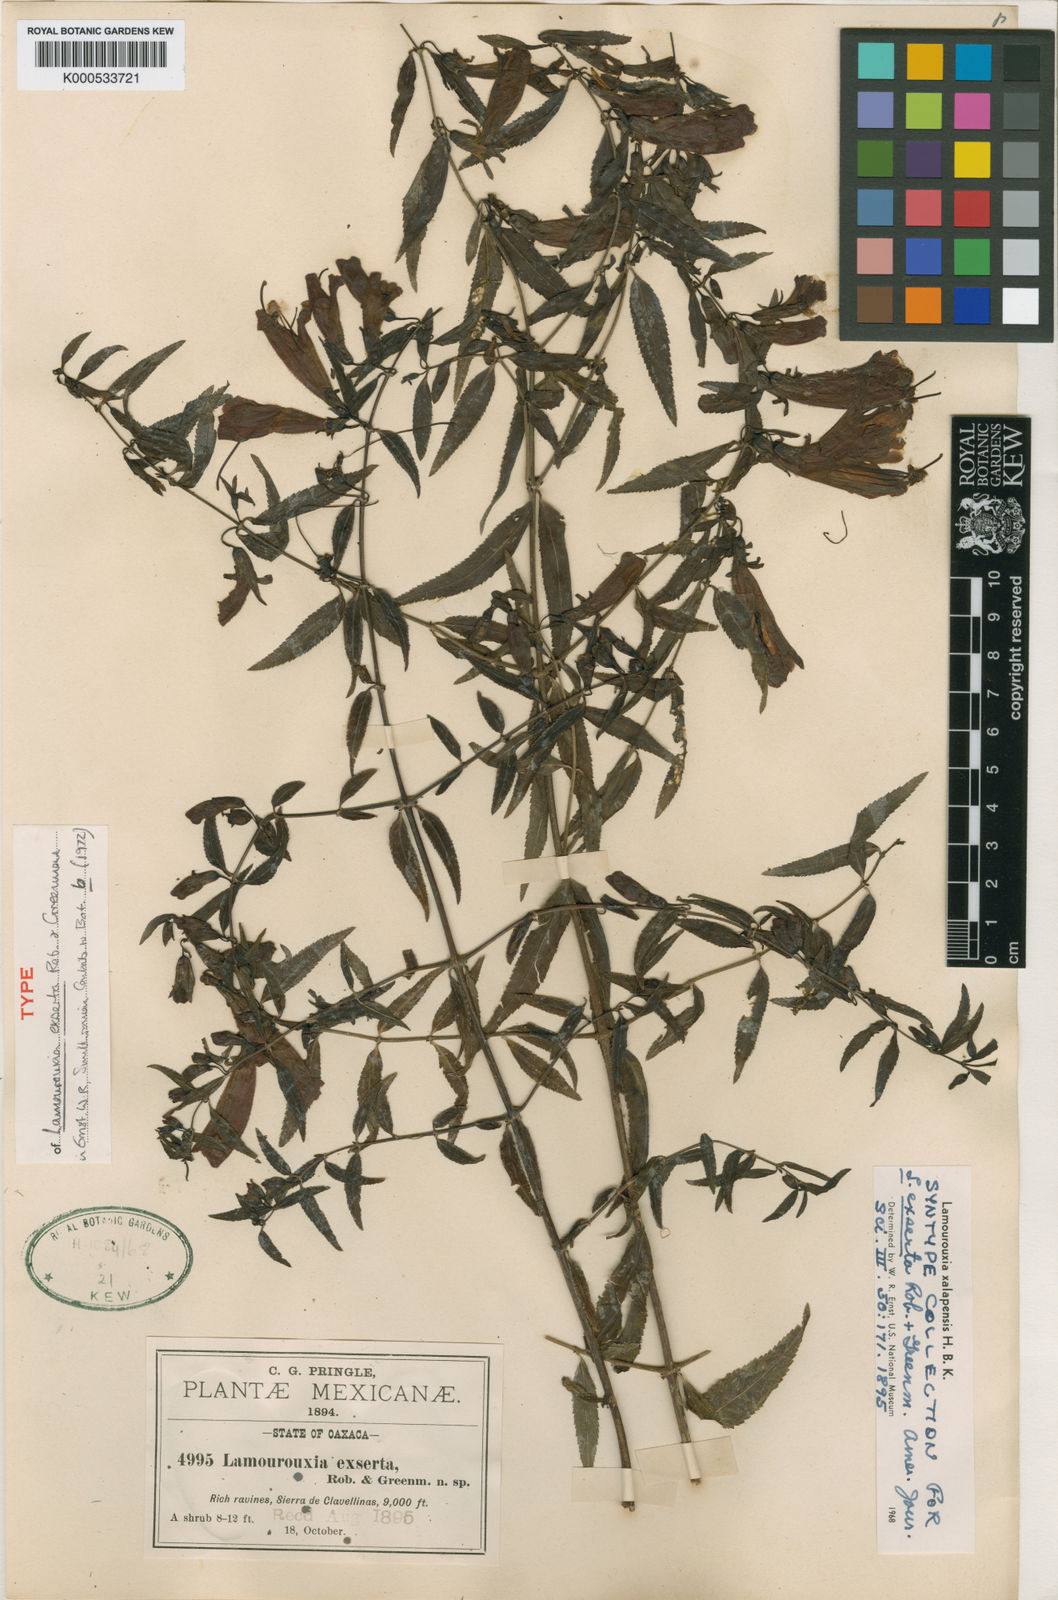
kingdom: Plantae
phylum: Tracheophyta
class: Magnoliopsida
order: Lamiales
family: Orobanchaceae
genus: Lamourouxia
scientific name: Lamourouxia xalapensis
